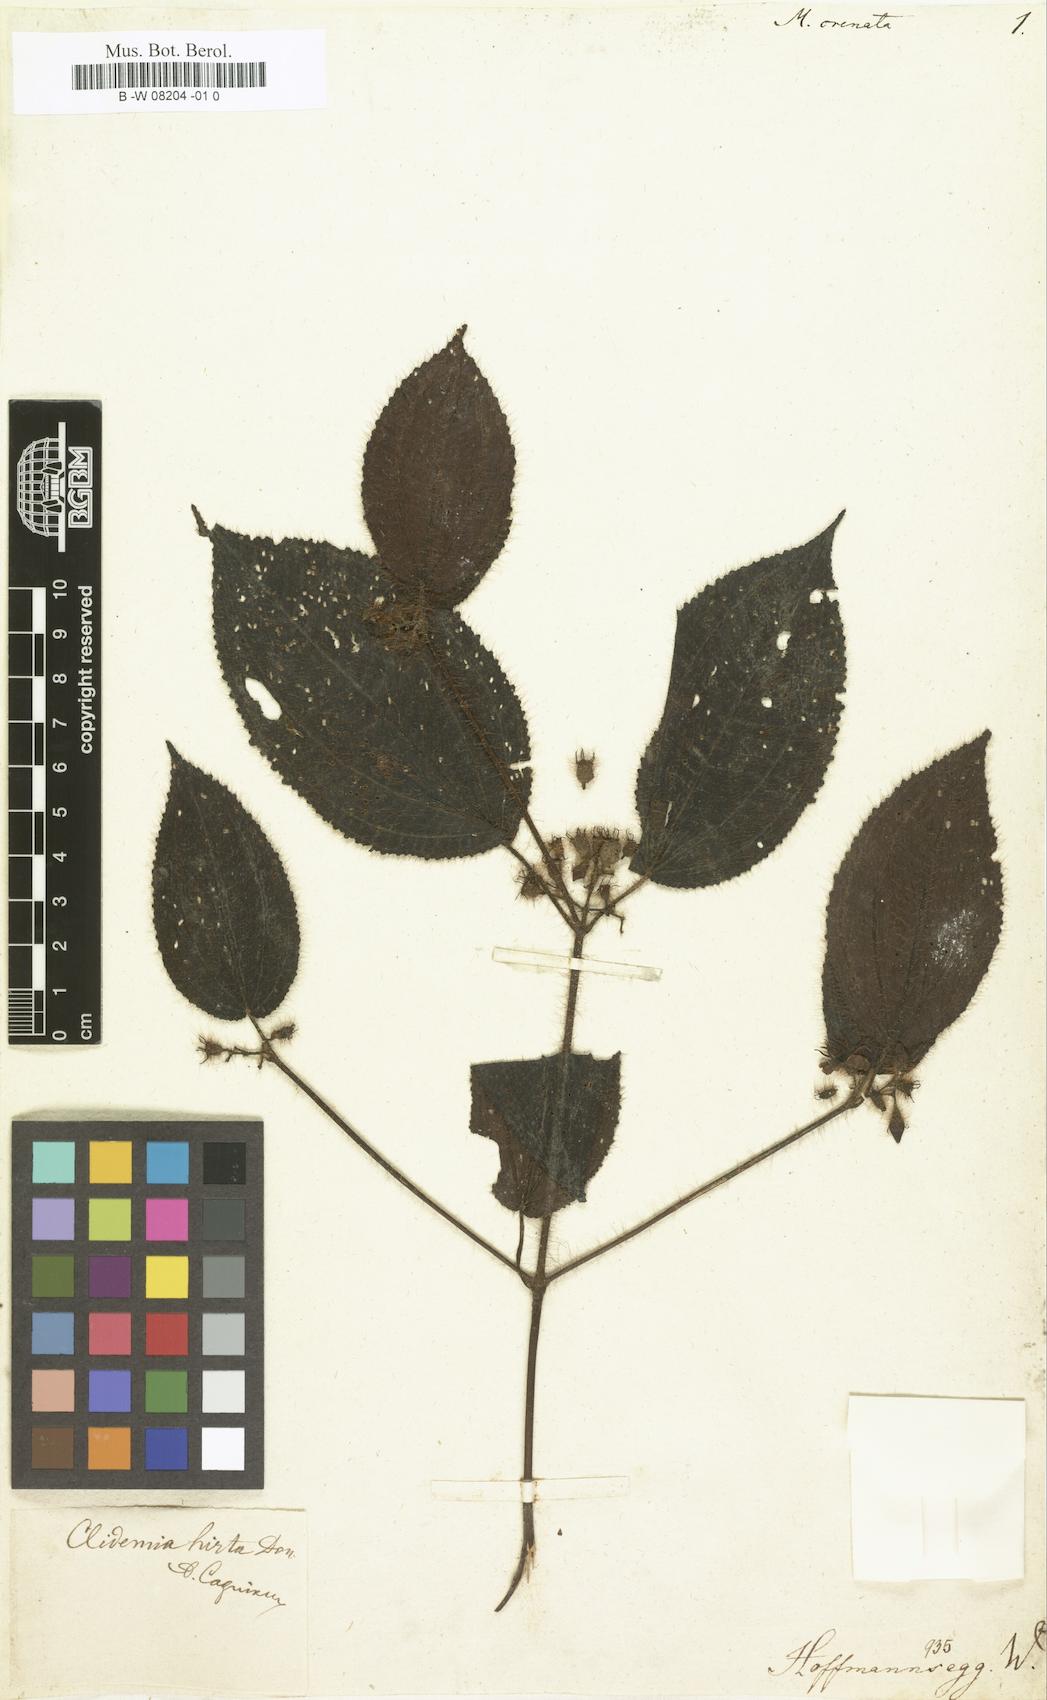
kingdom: Plantae
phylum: Tracheophyta
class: Magnoliopsida
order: Myrtales
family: Melastomataceae
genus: Miconia
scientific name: Miconia leacrenata
